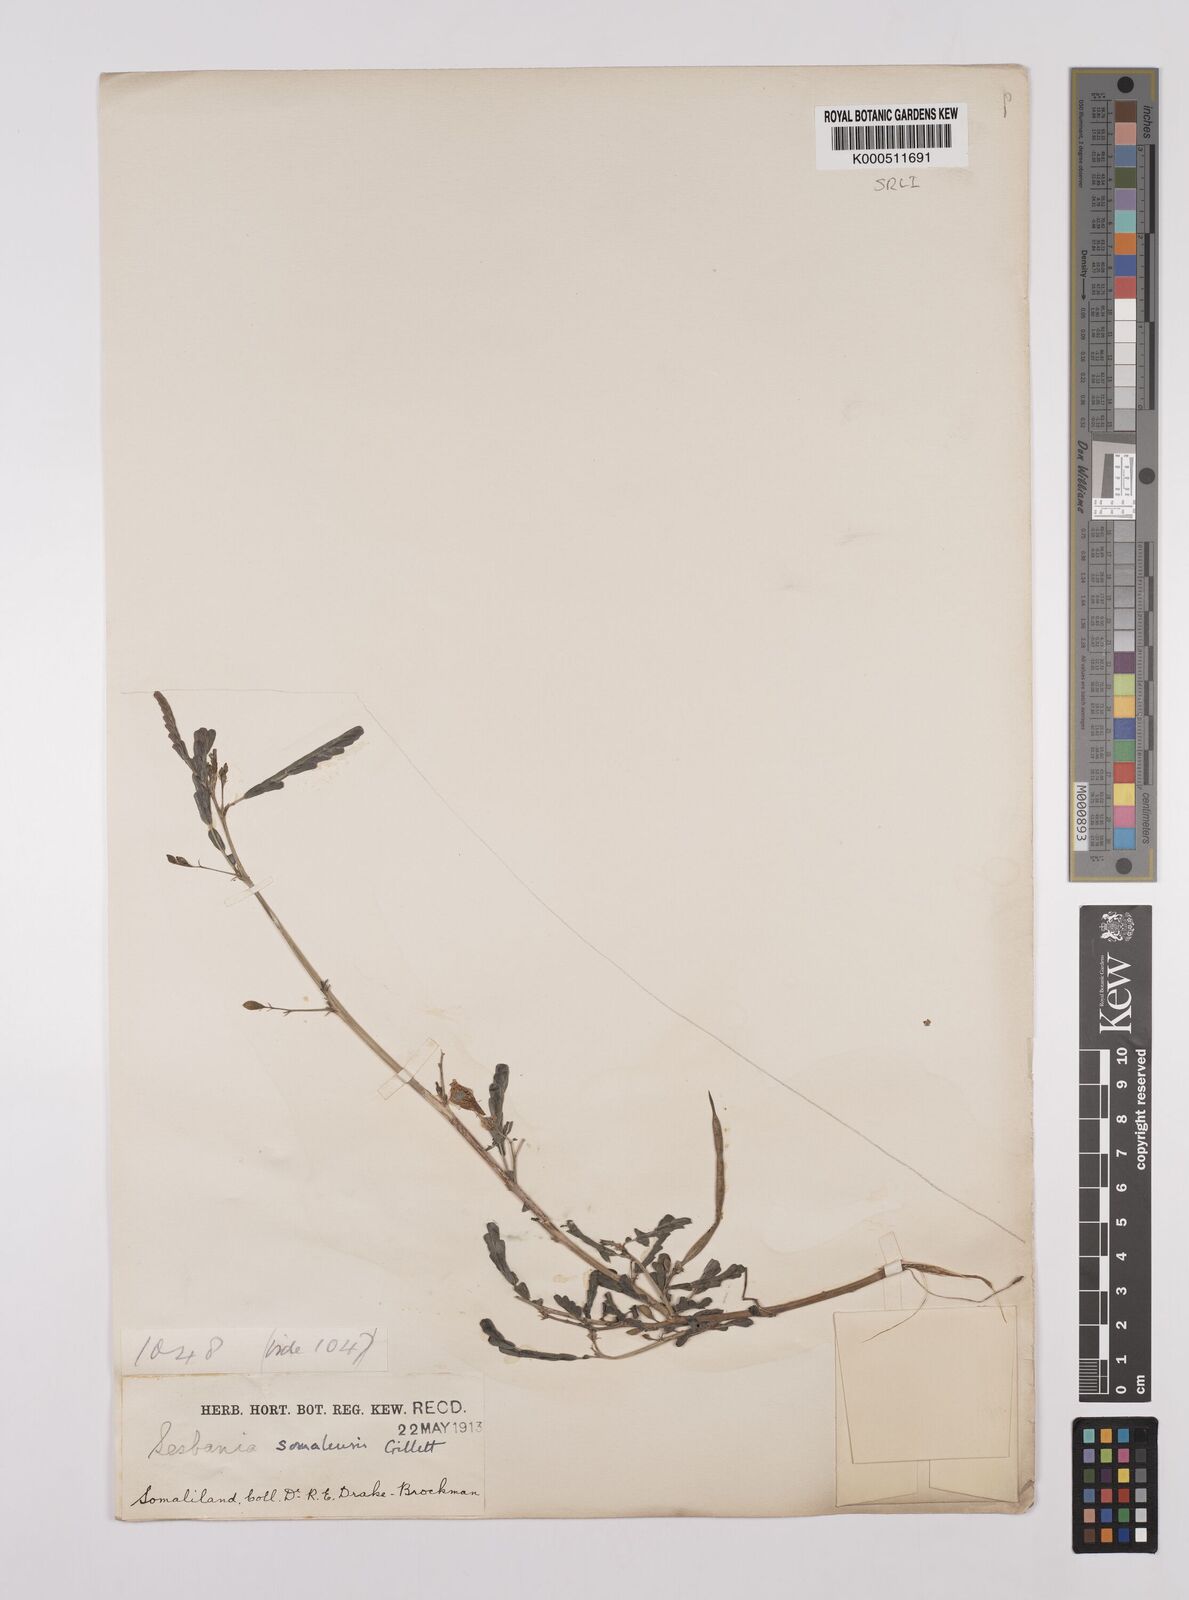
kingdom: Plantae
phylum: Tracheophyta
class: Magnoliopsida
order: Fabales
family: Fabaceae
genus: Sesbania
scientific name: Sesbania somalensis
